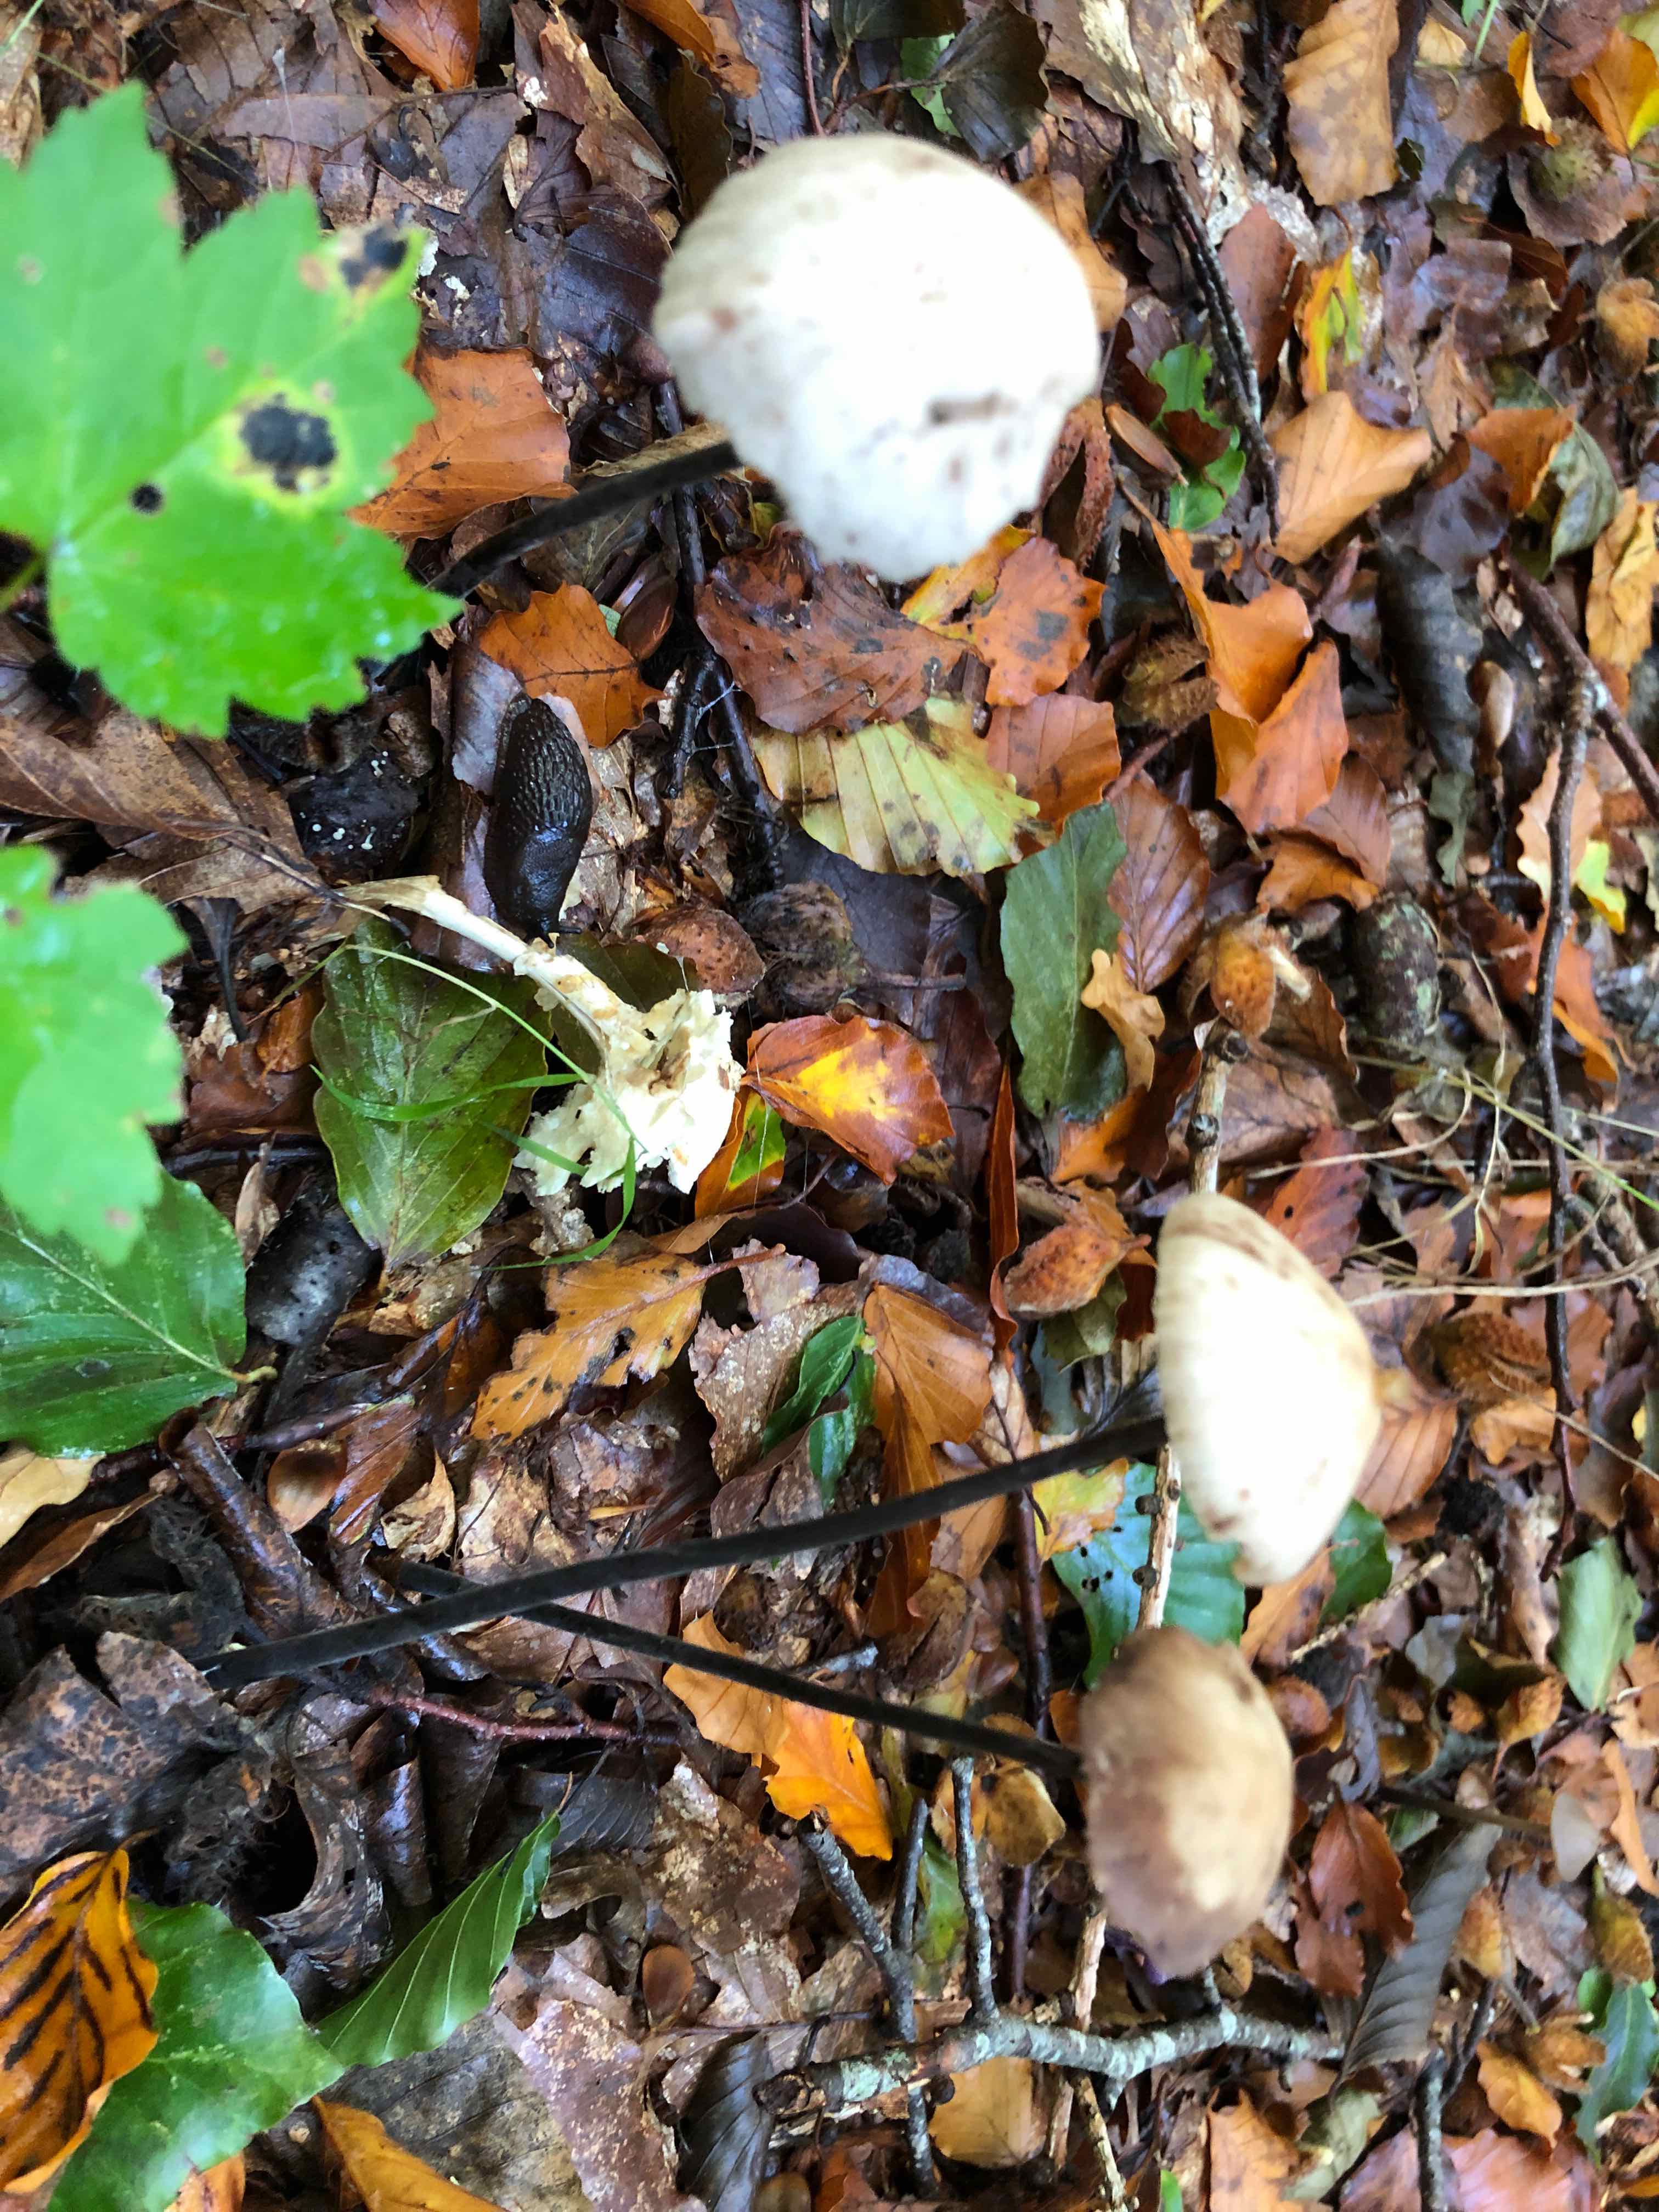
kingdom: Fungi
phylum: Basidiomycota
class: Agaricomycetes
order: Agaricales
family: Omphalotaceae
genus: Mycetinis
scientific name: Mycetinis alliaceus
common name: stor løghat
